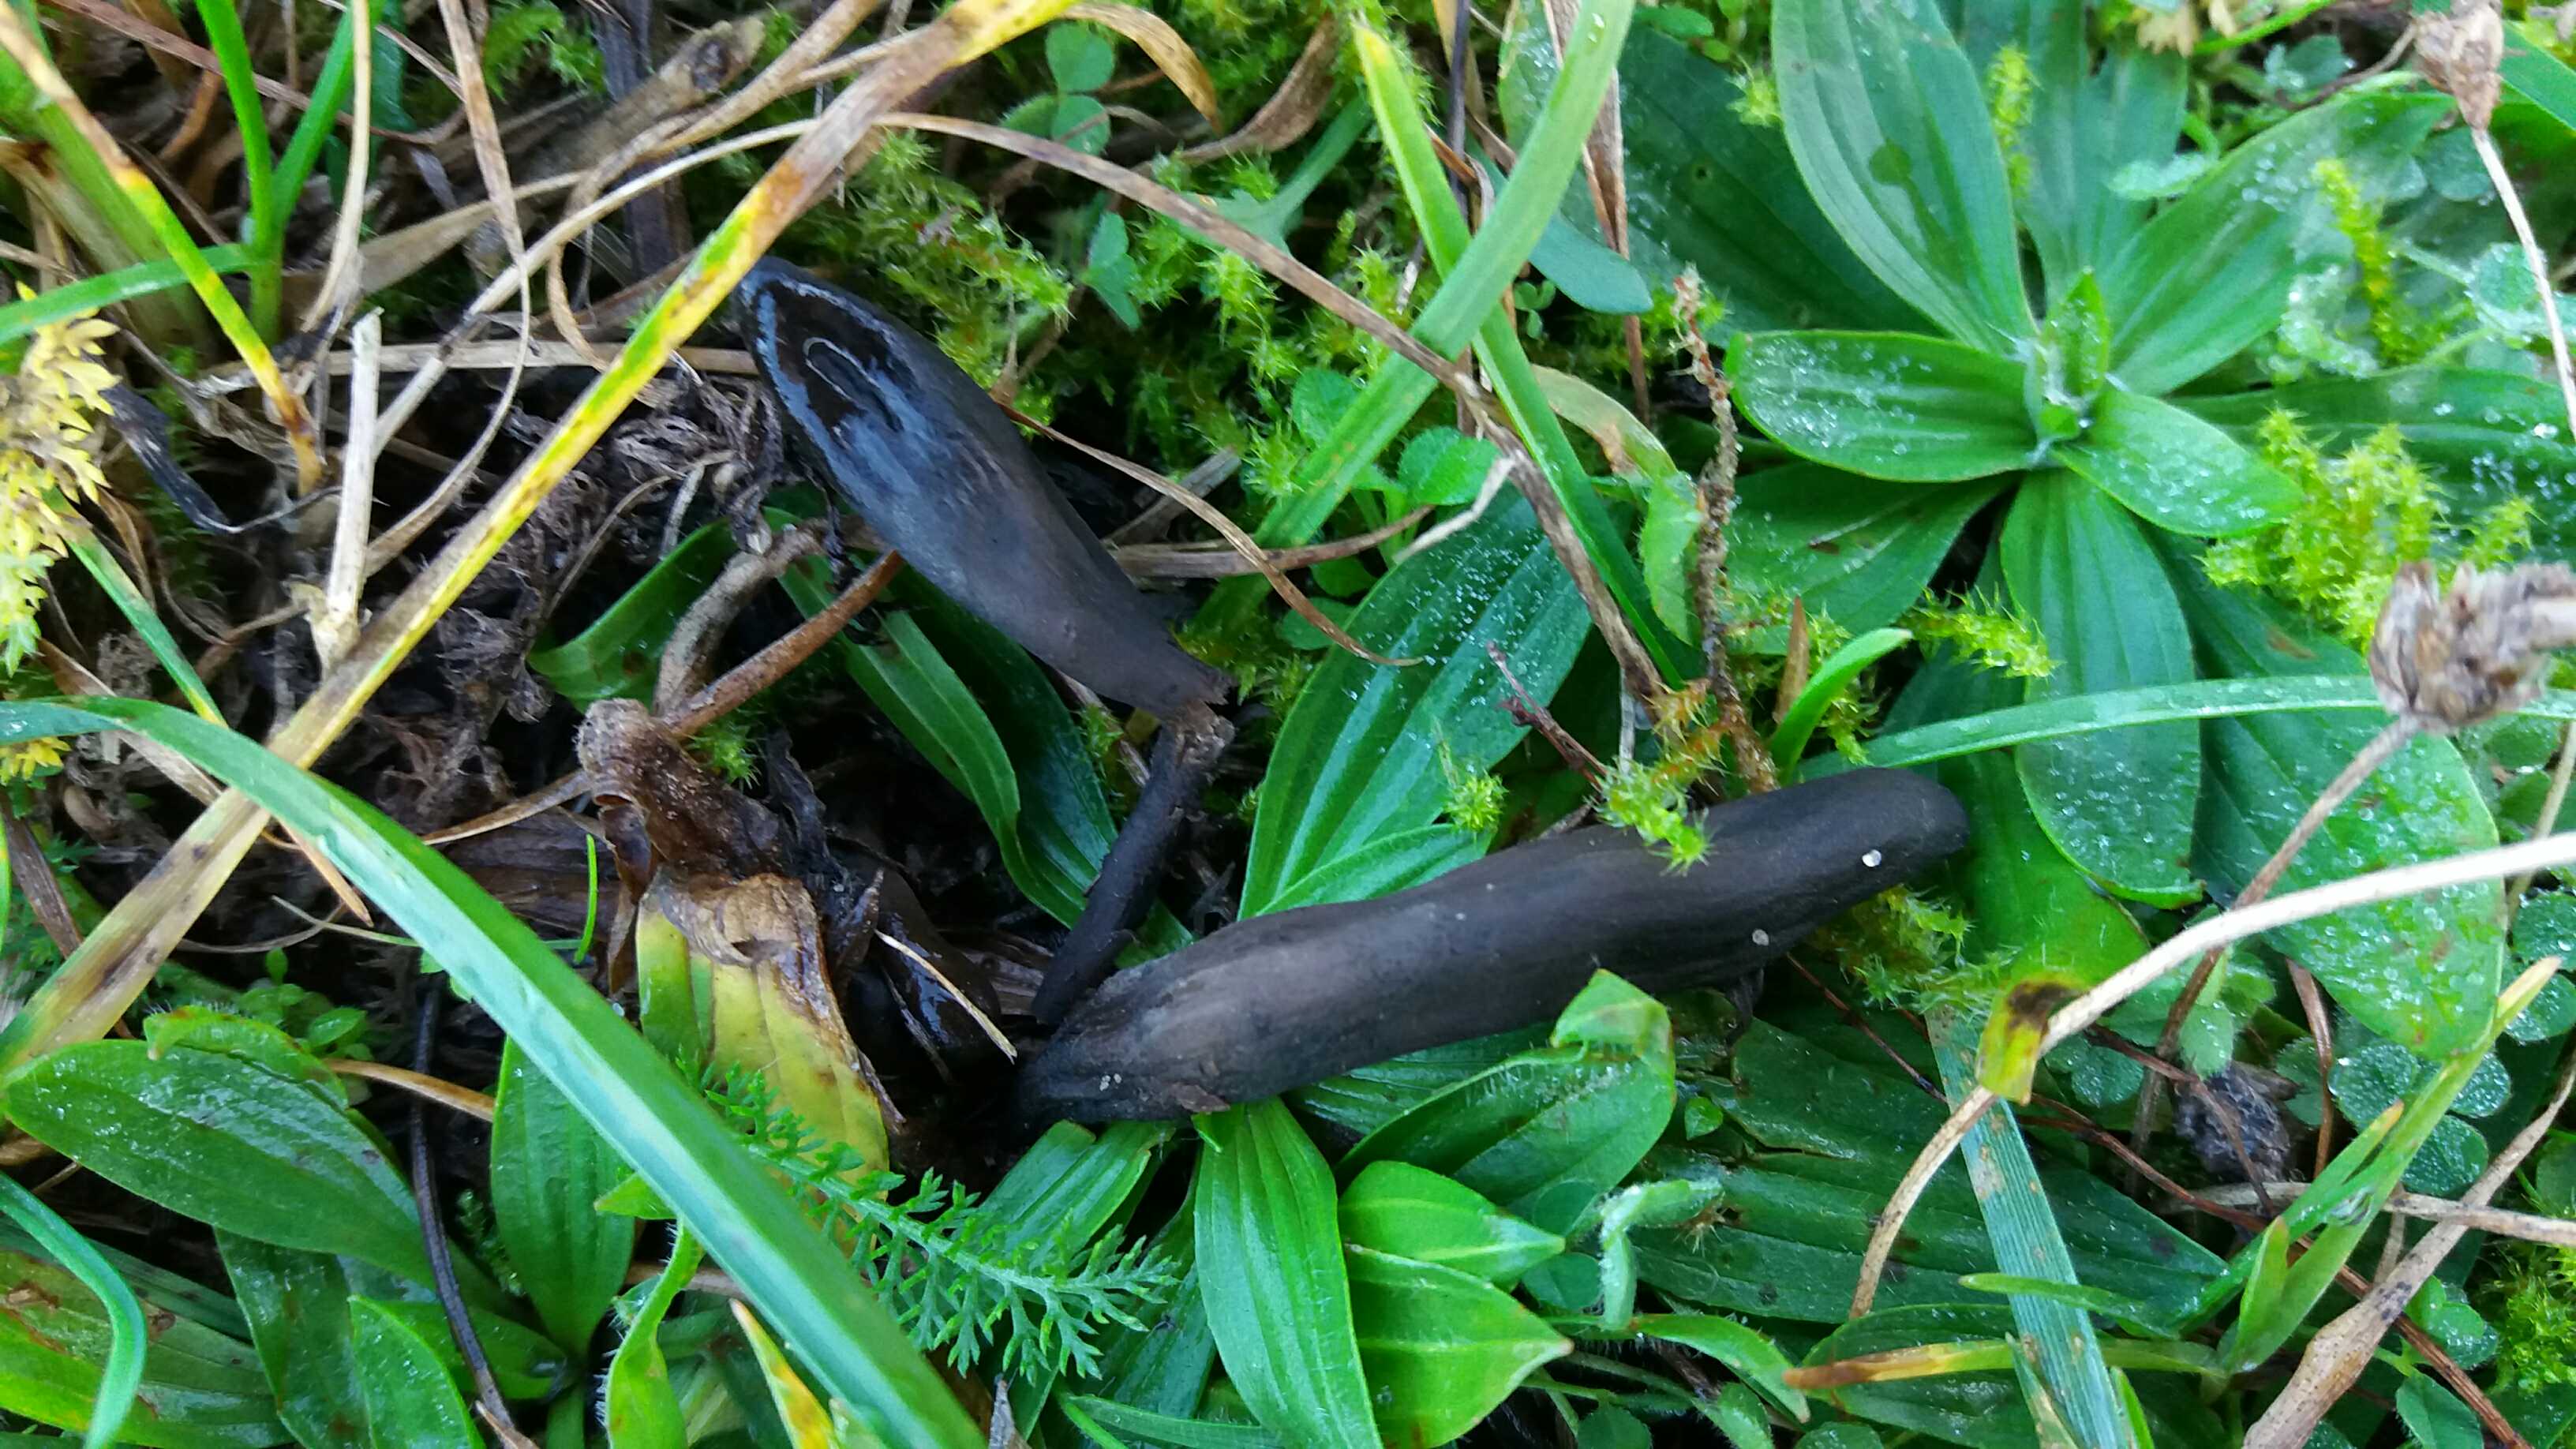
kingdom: Fungi
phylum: Ascomycota
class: Geoglossomycetes
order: Geoglossales
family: Geoglossaceae
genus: Hemileucoglossum
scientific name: Hemileucoglossum elongatum
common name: småsporet jordtunge
